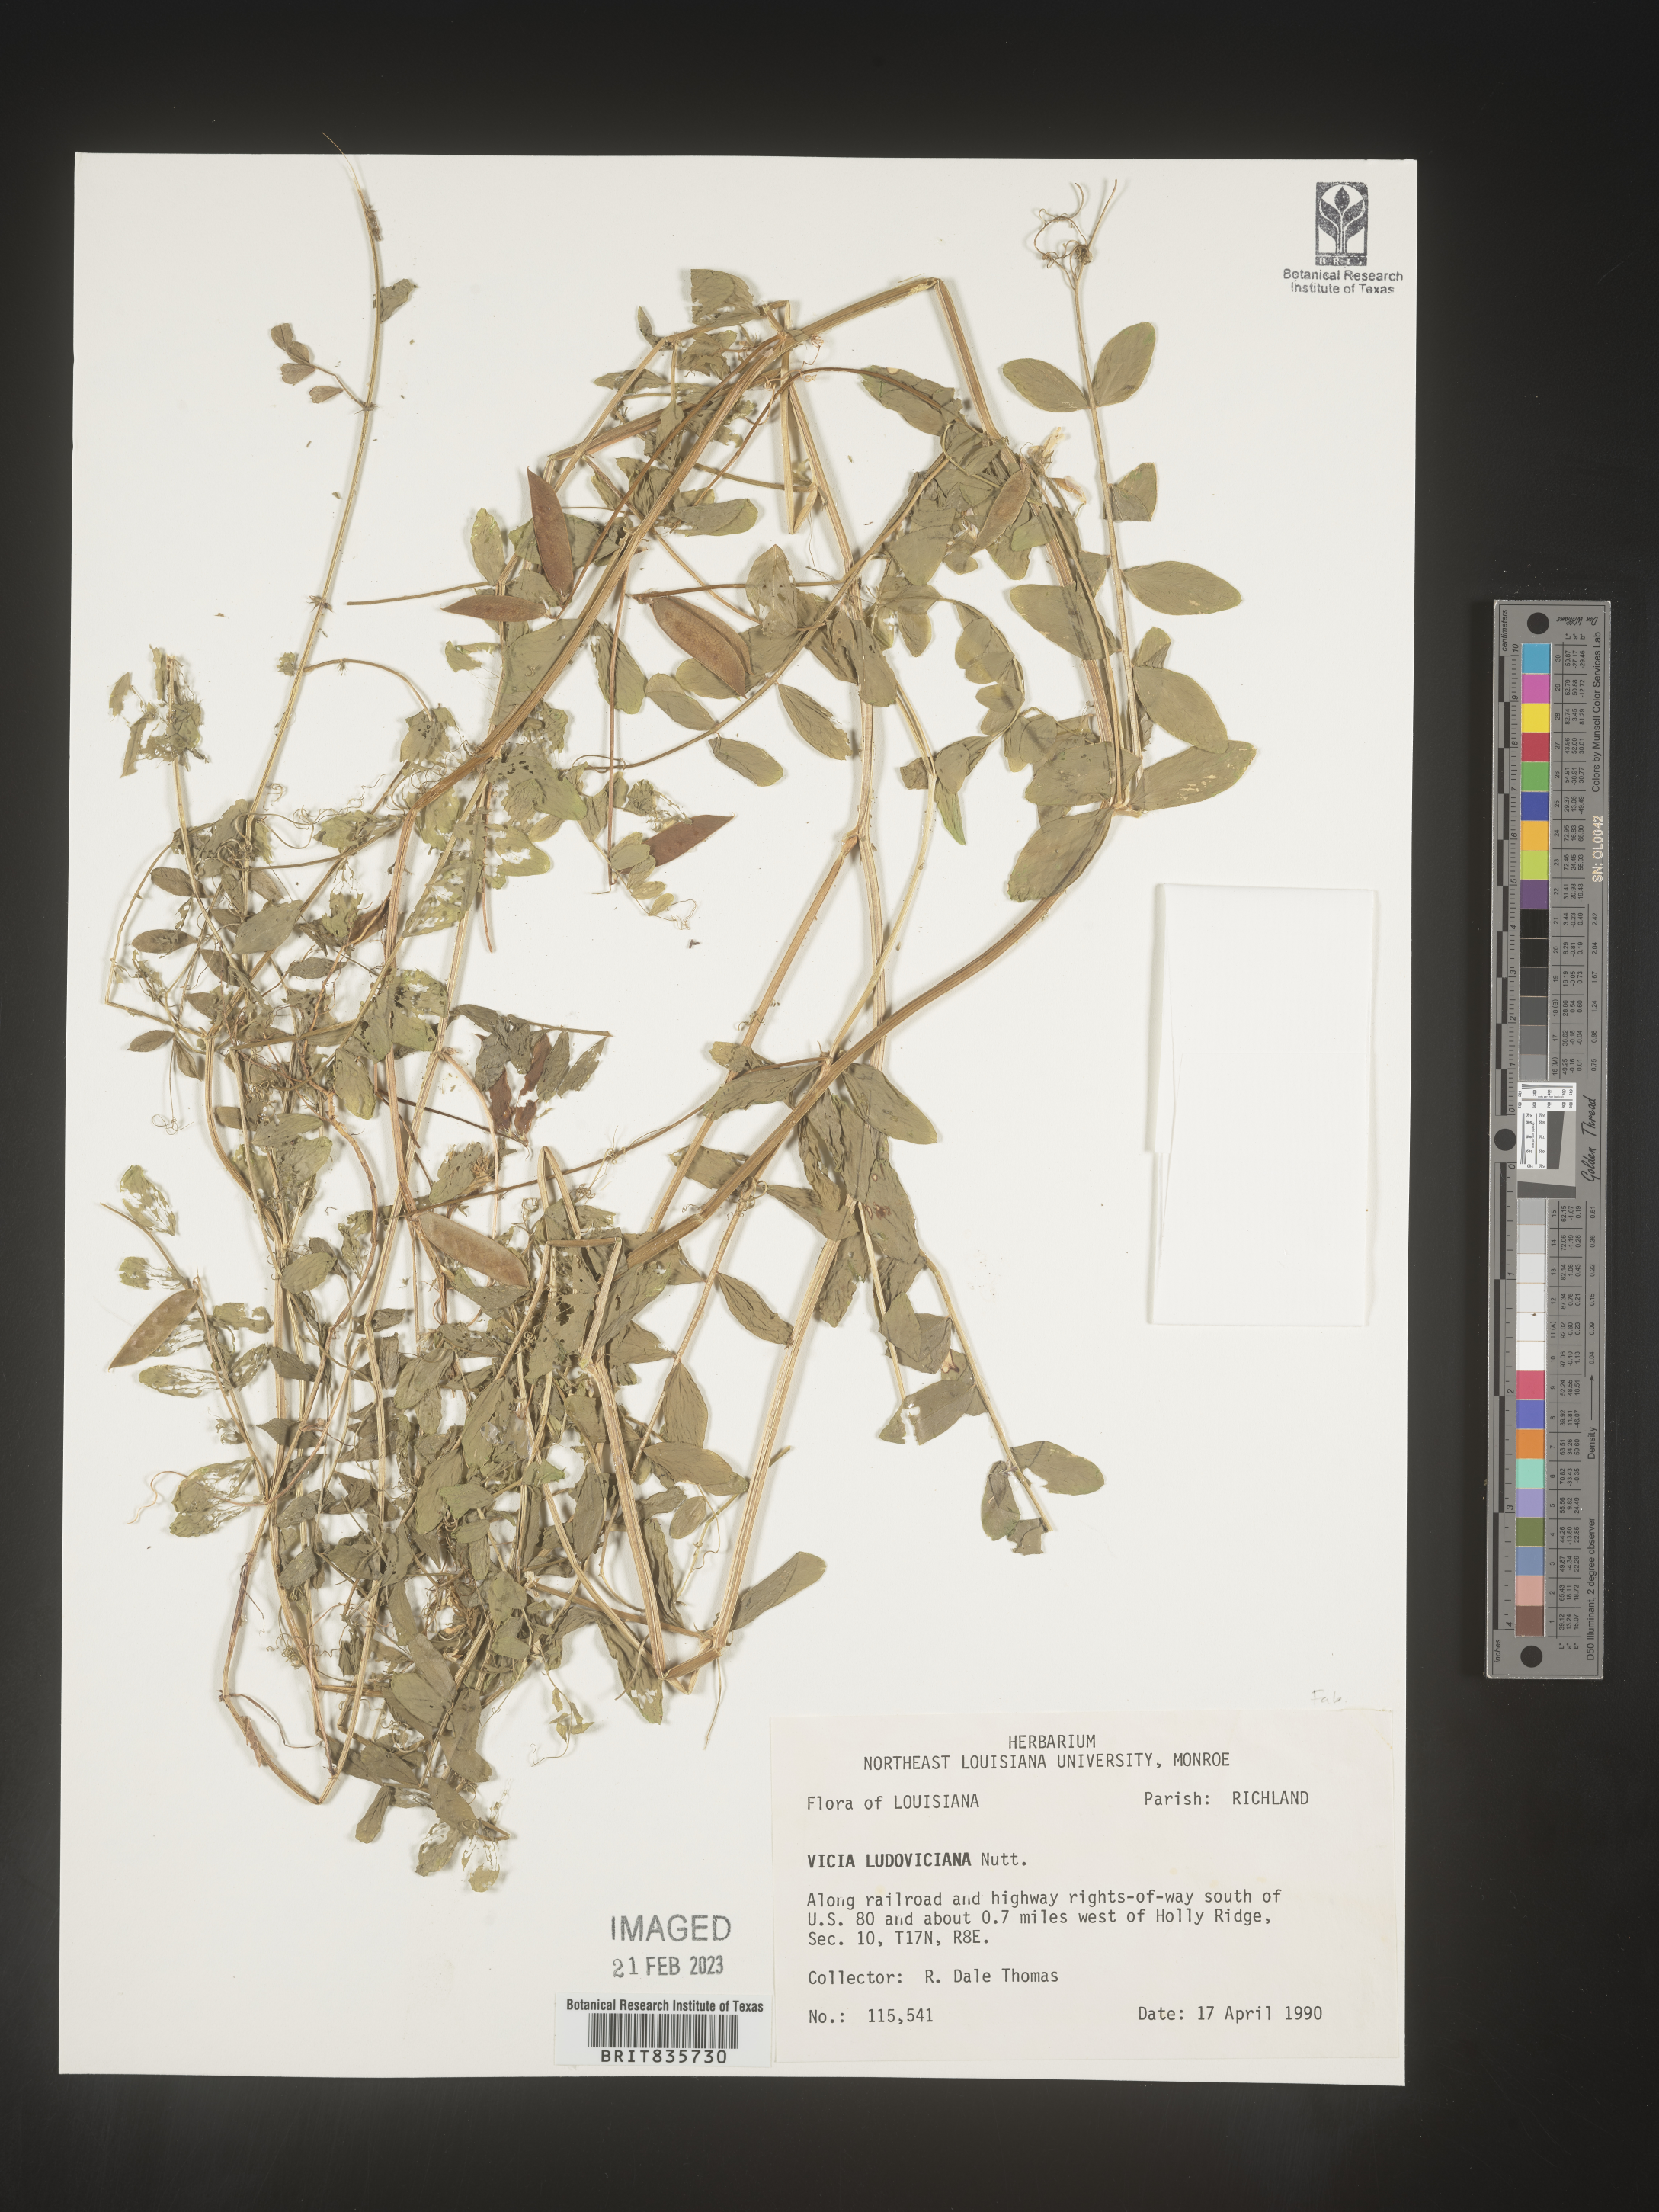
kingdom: Plantae
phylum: Tracheophyta
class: Magnoliopsida
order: Fabales
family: Fabaceae
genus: Vicia
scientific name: Vicia ludoviciana
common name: Louisiana vetch
